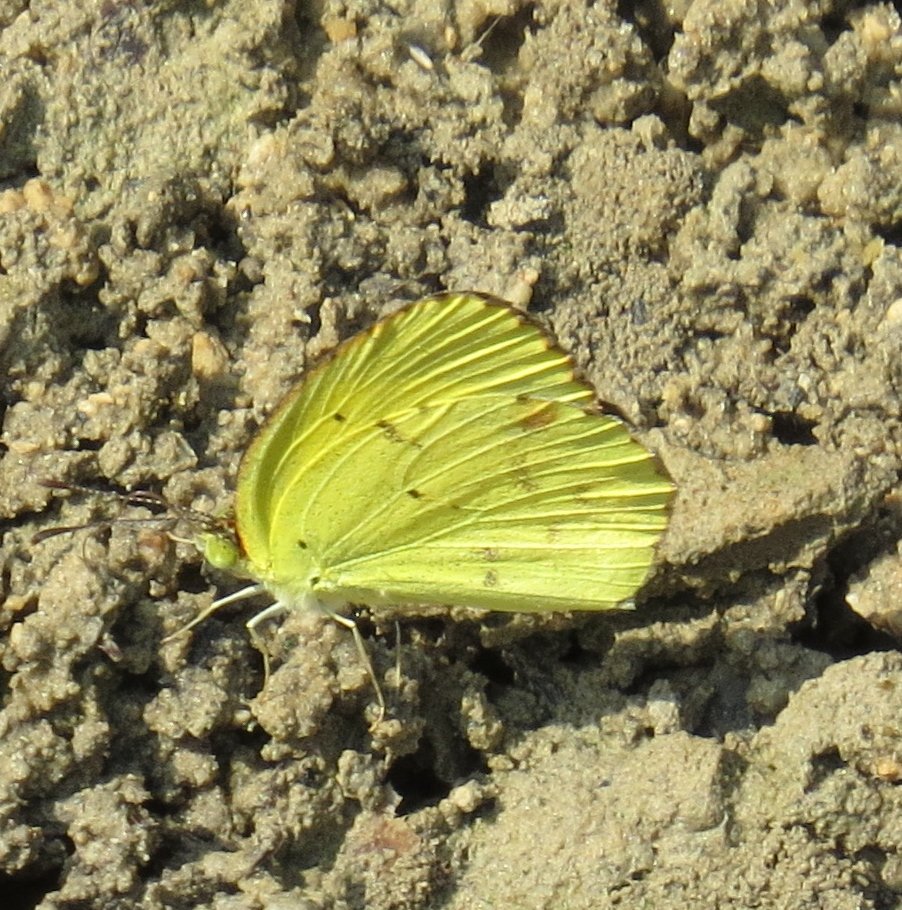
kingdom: Animalia
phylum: Arthropoda
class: Insecta
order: Lepidoptera
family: Pieridae
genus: Pyrisitia
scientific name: Pyrisitia lisa
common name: Little Yellow
